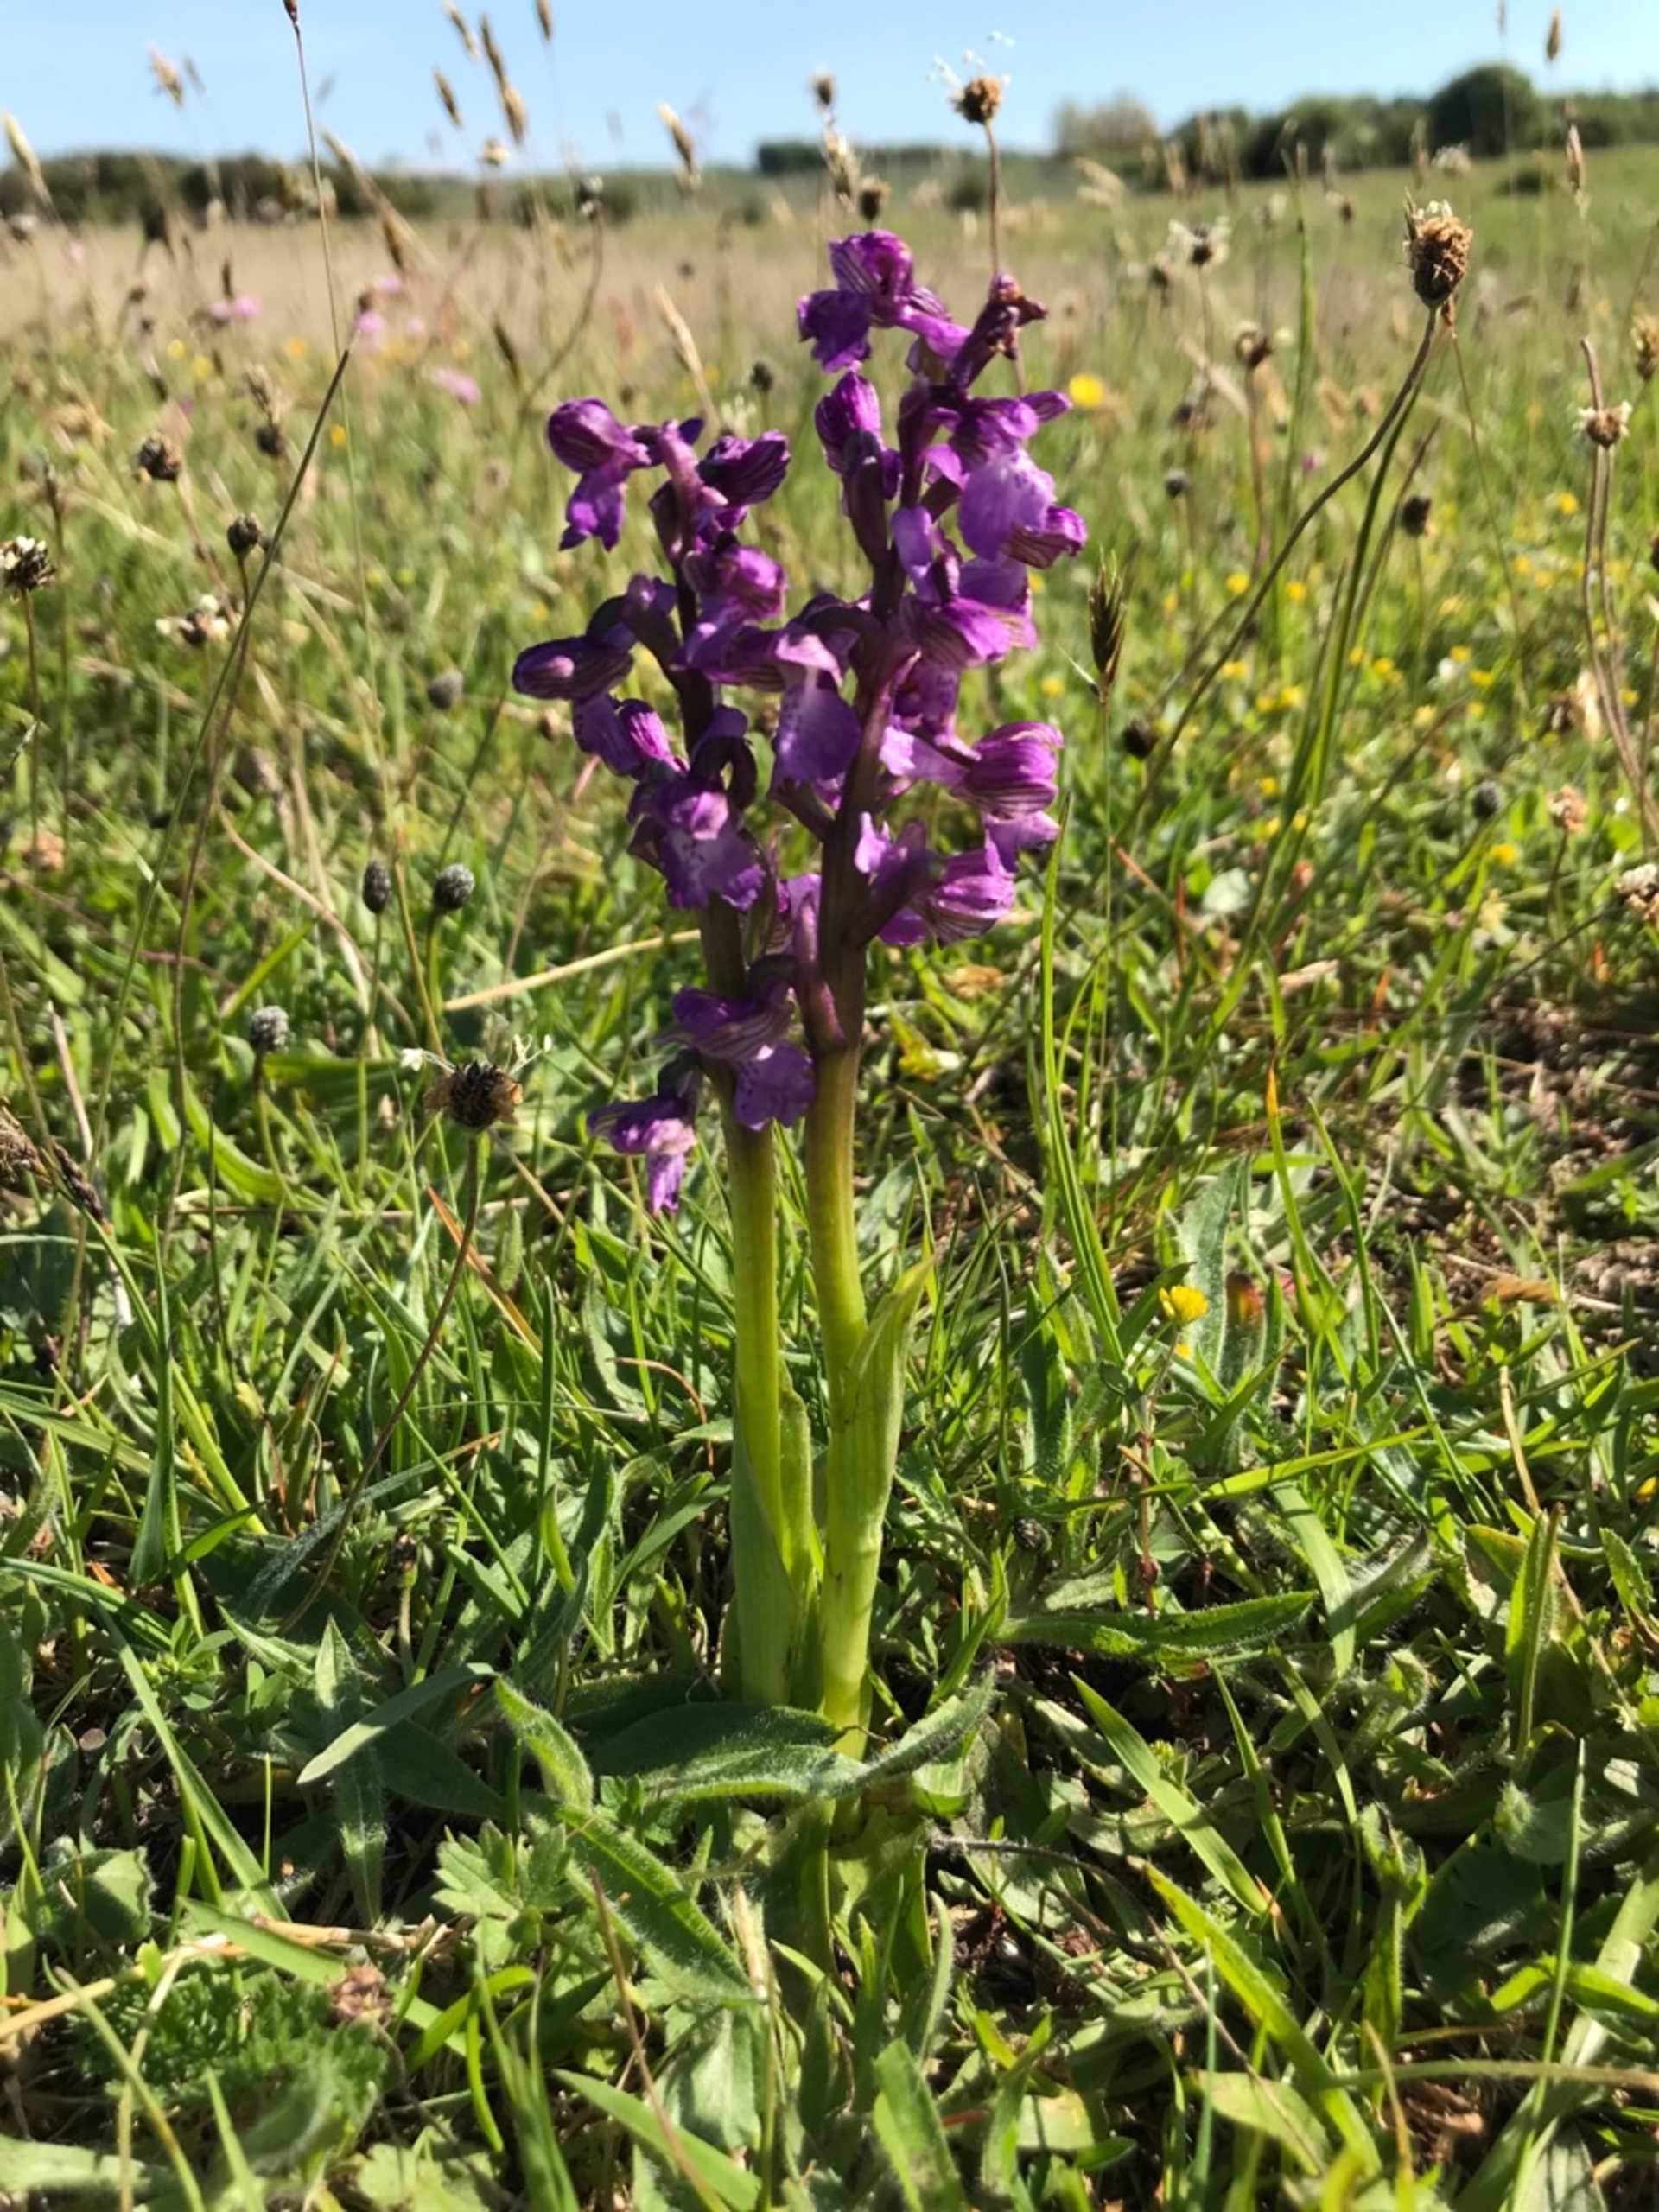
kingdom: Plantae
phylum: Tracheophyta
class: Liliopsida
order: Asparagales
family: Orchidaceae
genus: Anacamptis
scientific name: Anacamptis morio
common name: Salepgøgeurt
